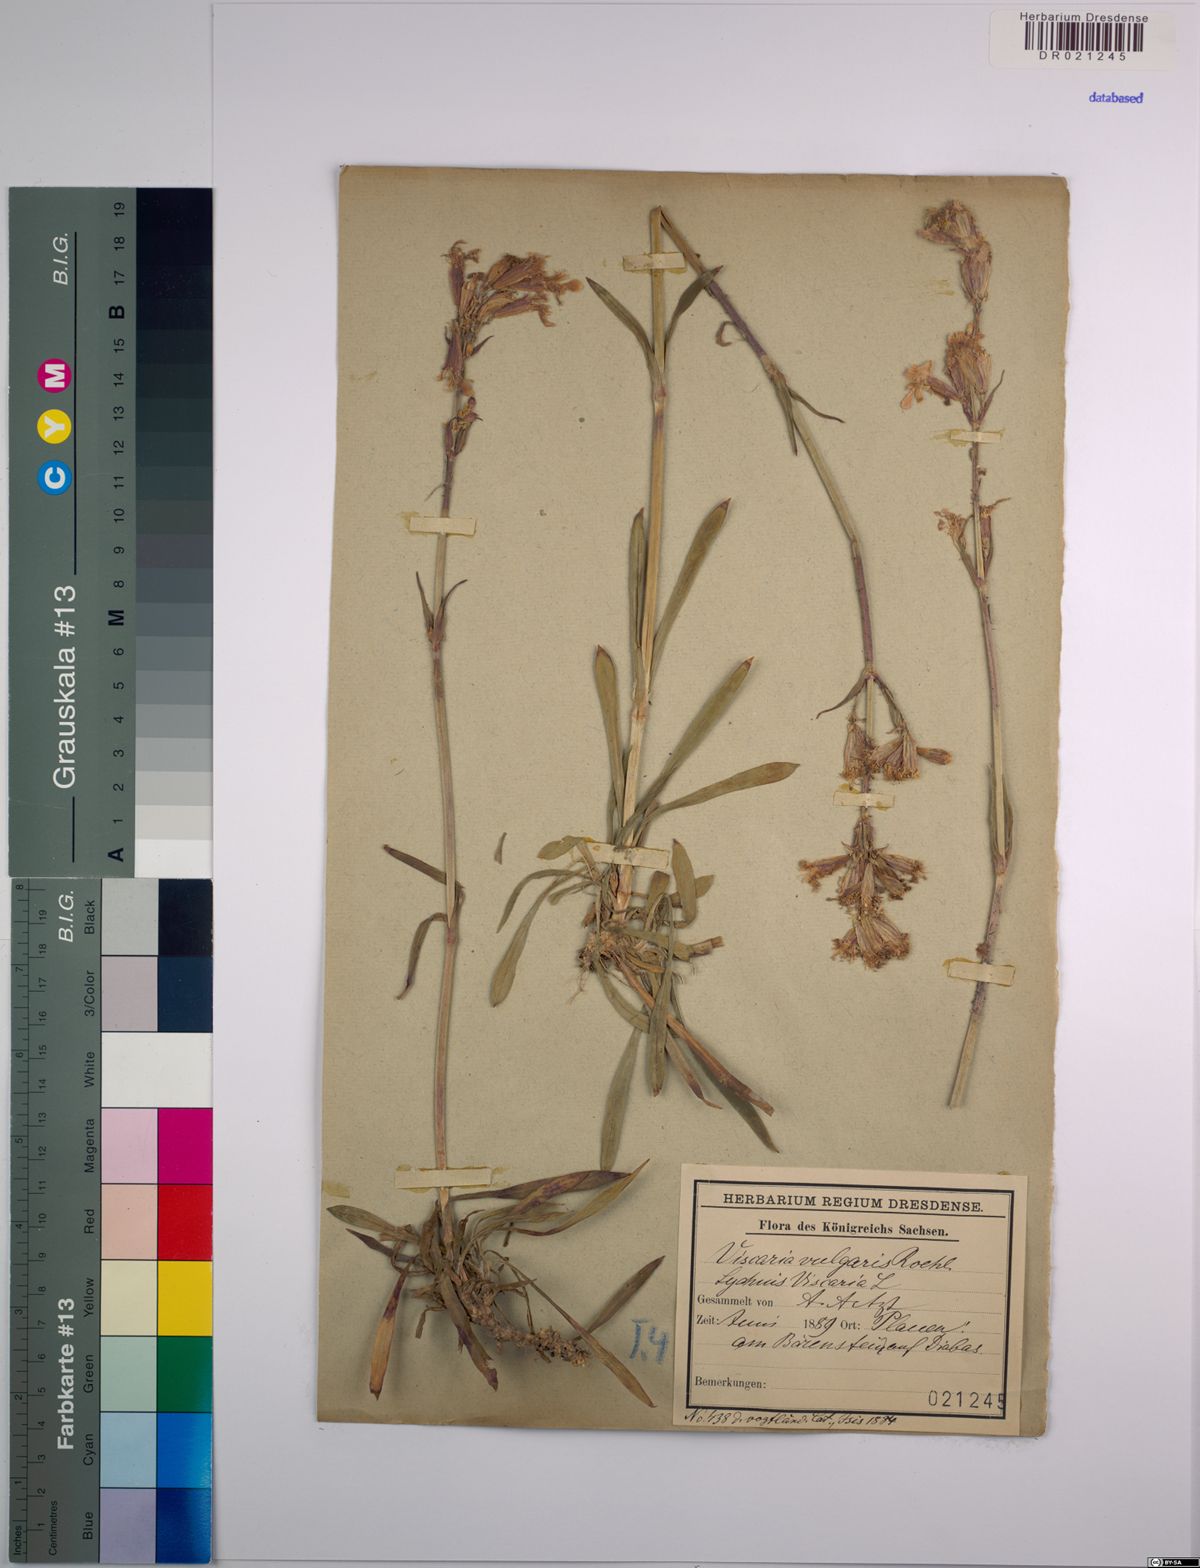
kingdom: Plantae
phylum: Tracheophyta
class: Magnoliopsida
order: Caryophyllales
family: Caryophyllaceae
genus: Viscaria
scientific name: Viscaria vulgaris
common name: Clammy campion
